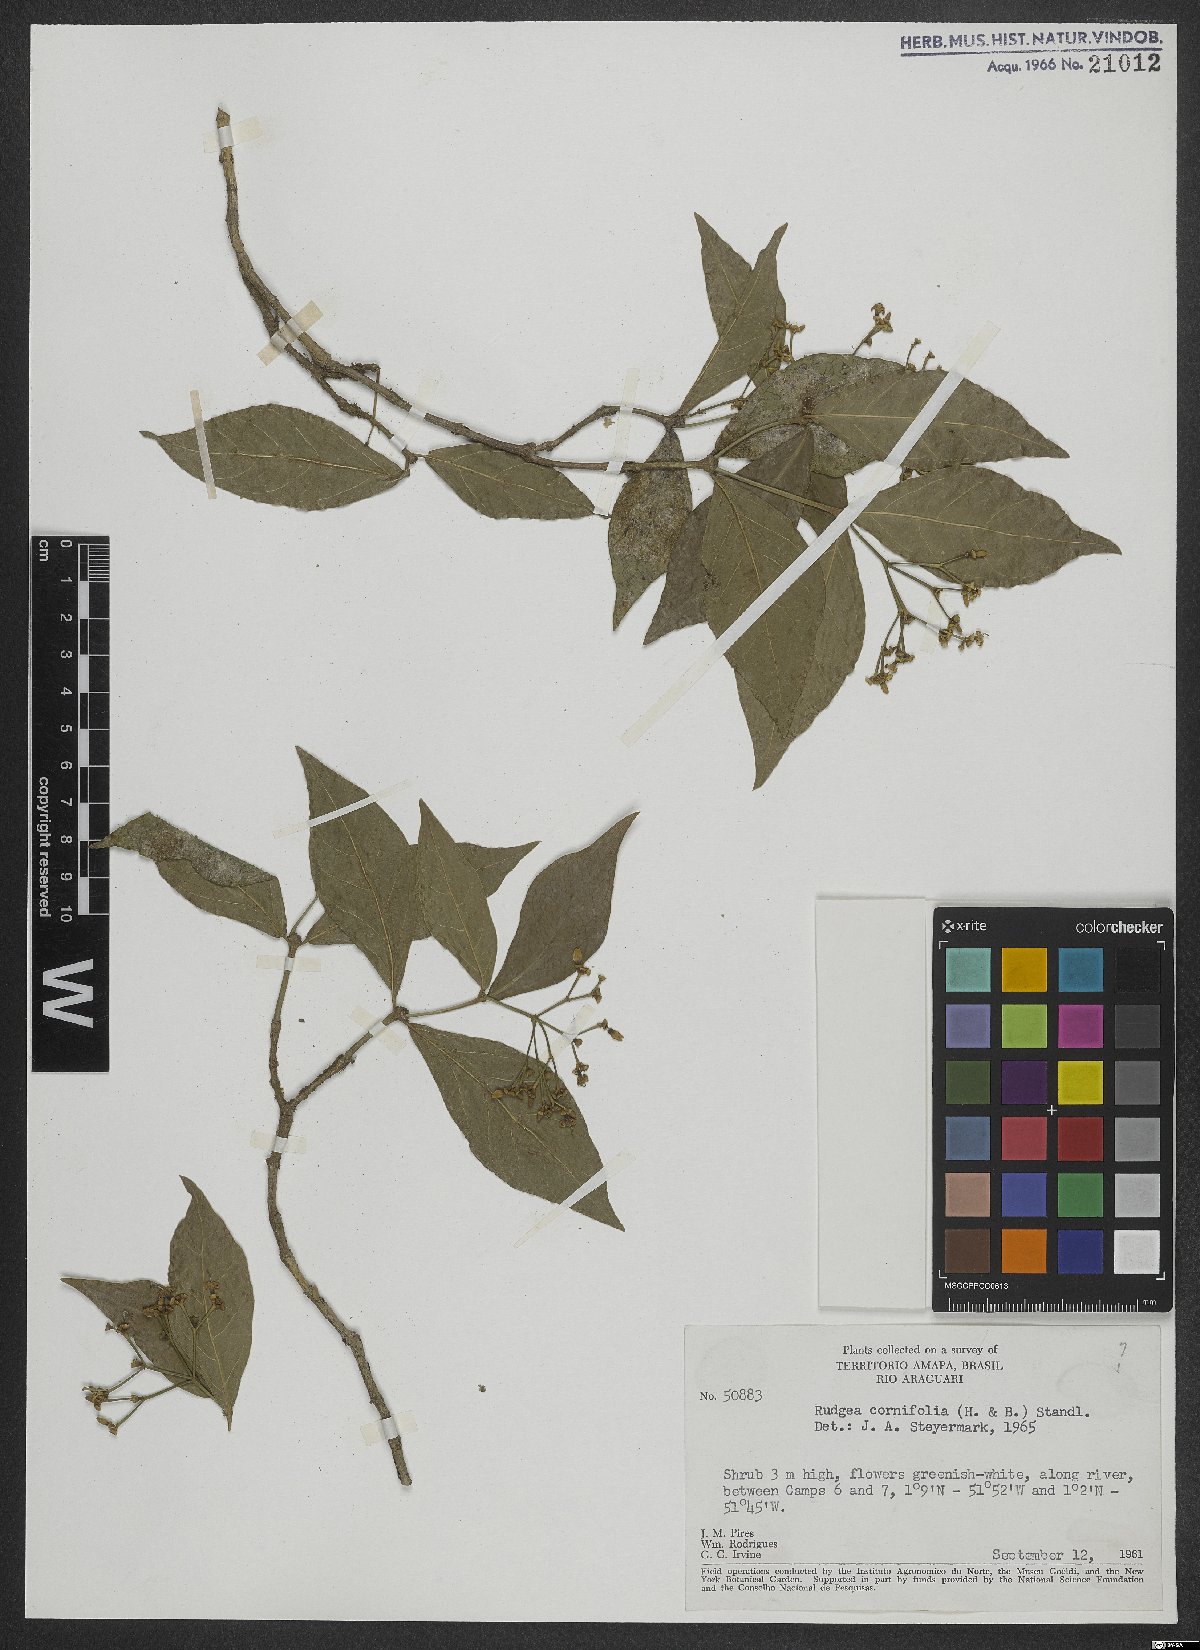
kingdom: Plantae
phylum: Tracheophyta
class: Magnoliopsida
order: Gentianales
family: Rubiaceae
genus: Rudgea
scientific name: Rudgea cornifolia
